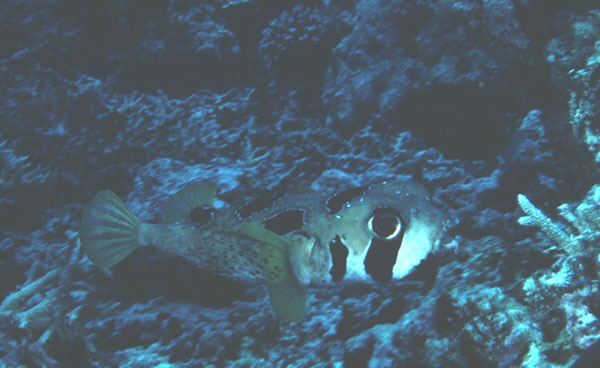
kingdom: Animalia
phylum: Chordata
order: Tetraodontiformes
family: Diodontidae
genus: Diodon
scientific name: Diodon liturosus
